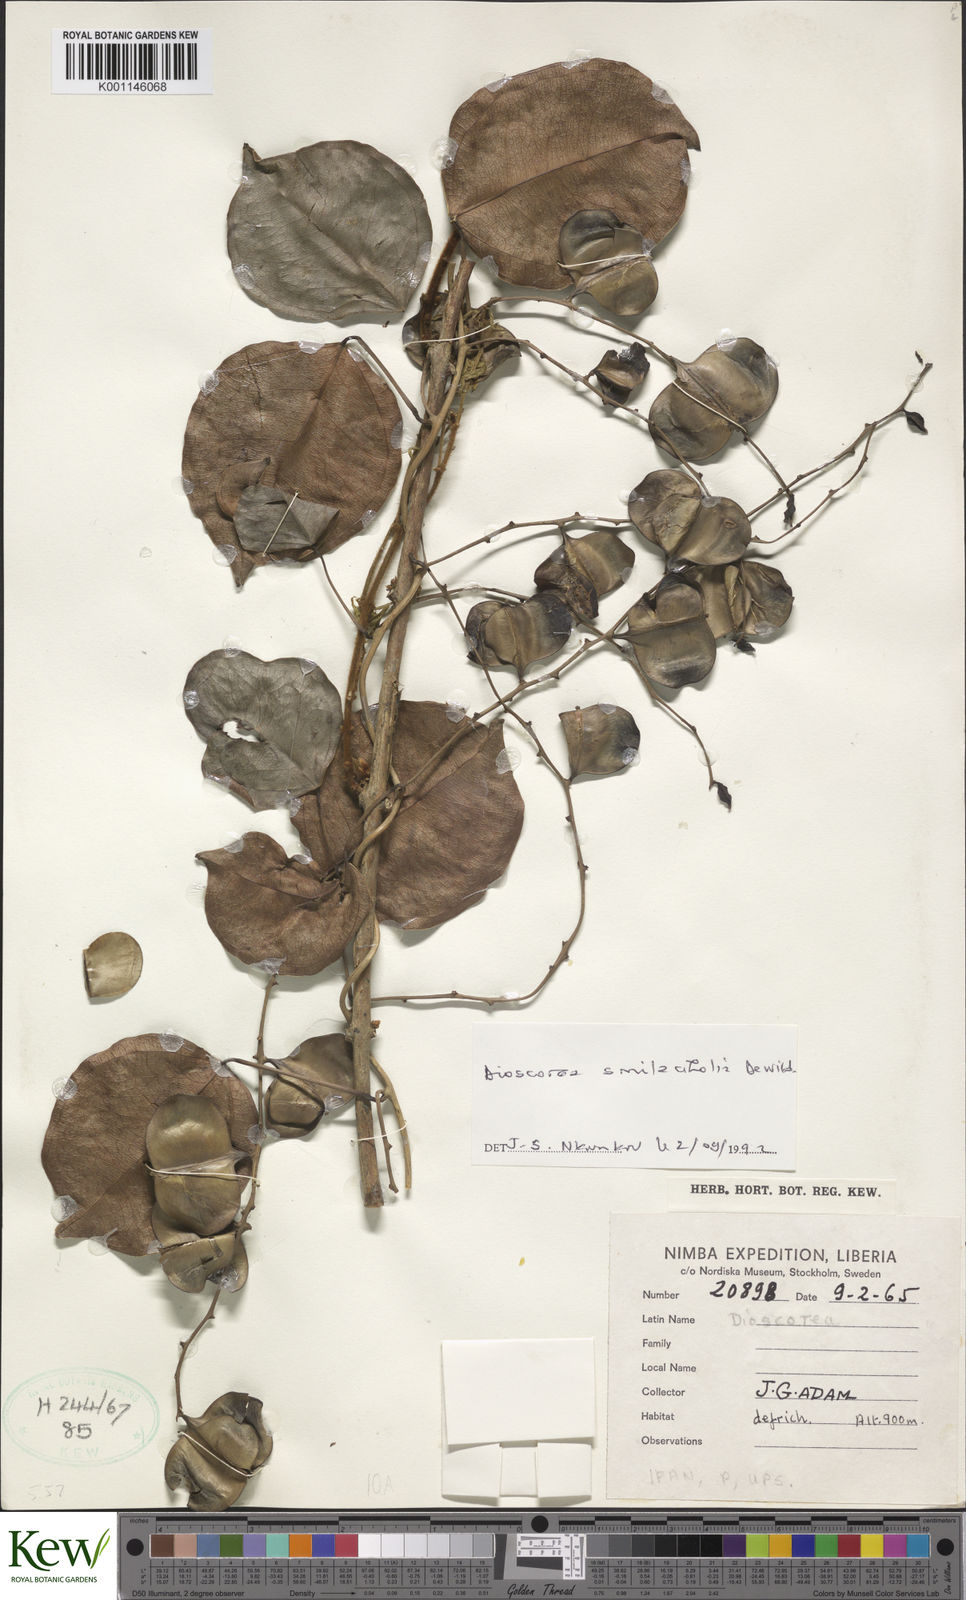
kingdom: Plantae
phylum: Tracheophyta
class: Liliopsida
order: Dioscoreales
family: Dioscoreaceae
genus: Dioscorea
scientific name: Dioscorea smilacifolia
